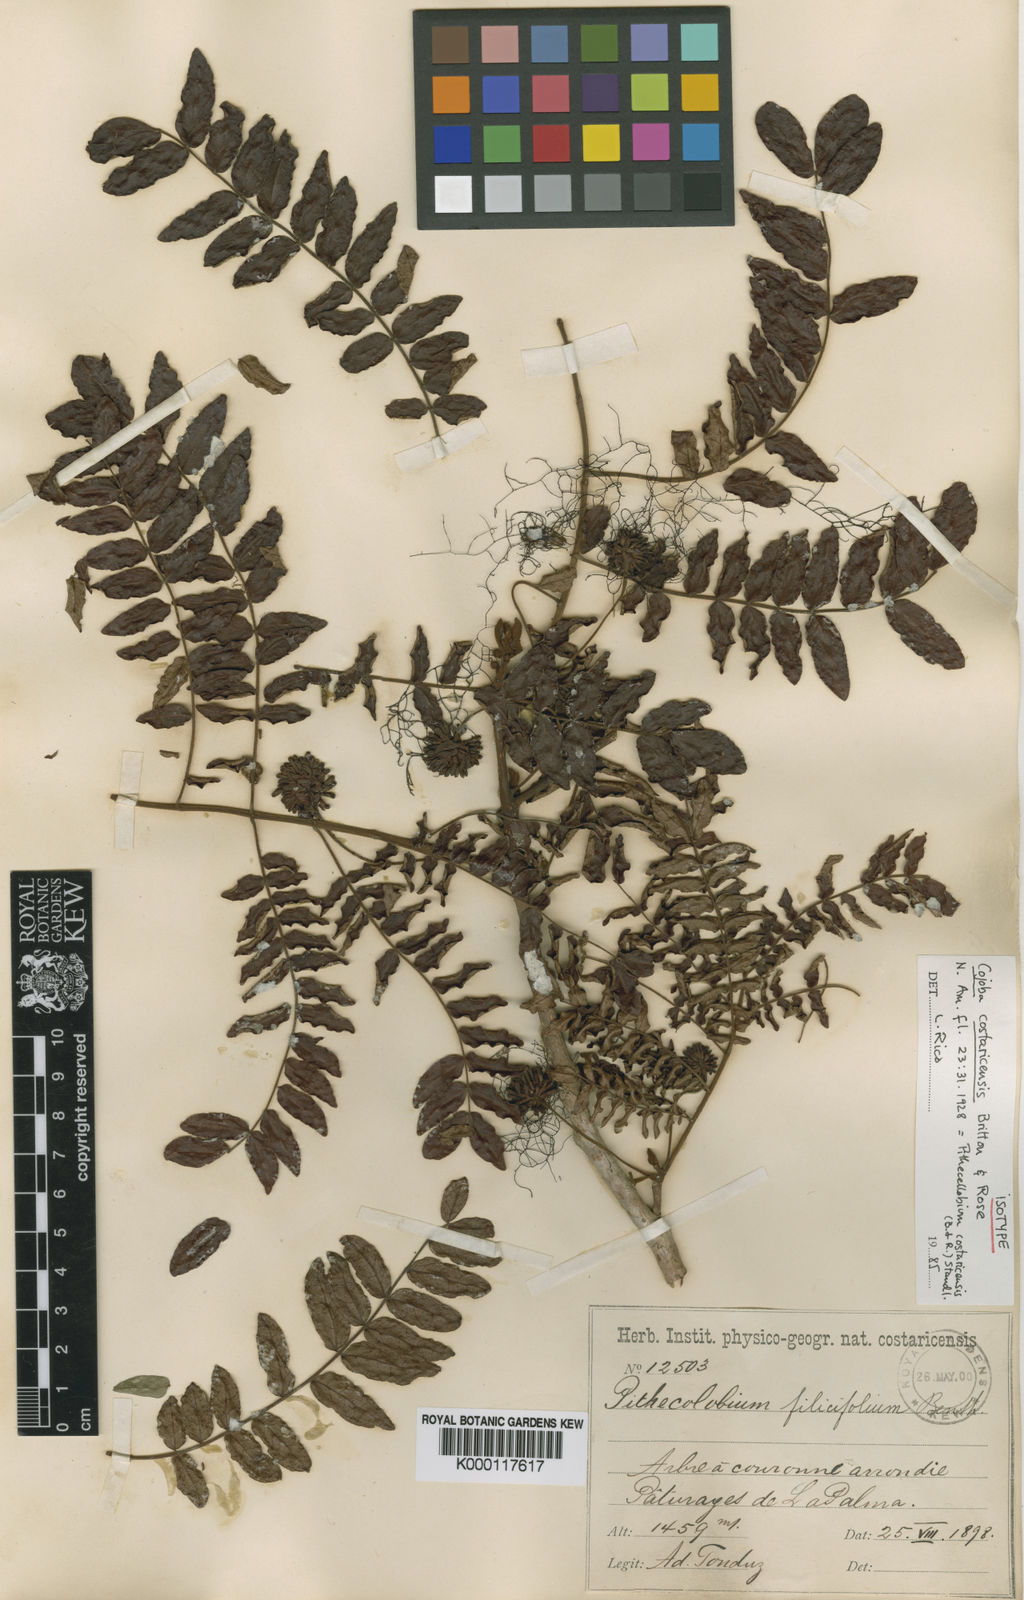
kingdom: Plantae
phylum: Tracheophyta
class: Magnoliopsida
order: Fabales
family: Fabaceae
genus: Cojoba
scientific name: Cojoba costaricensis
